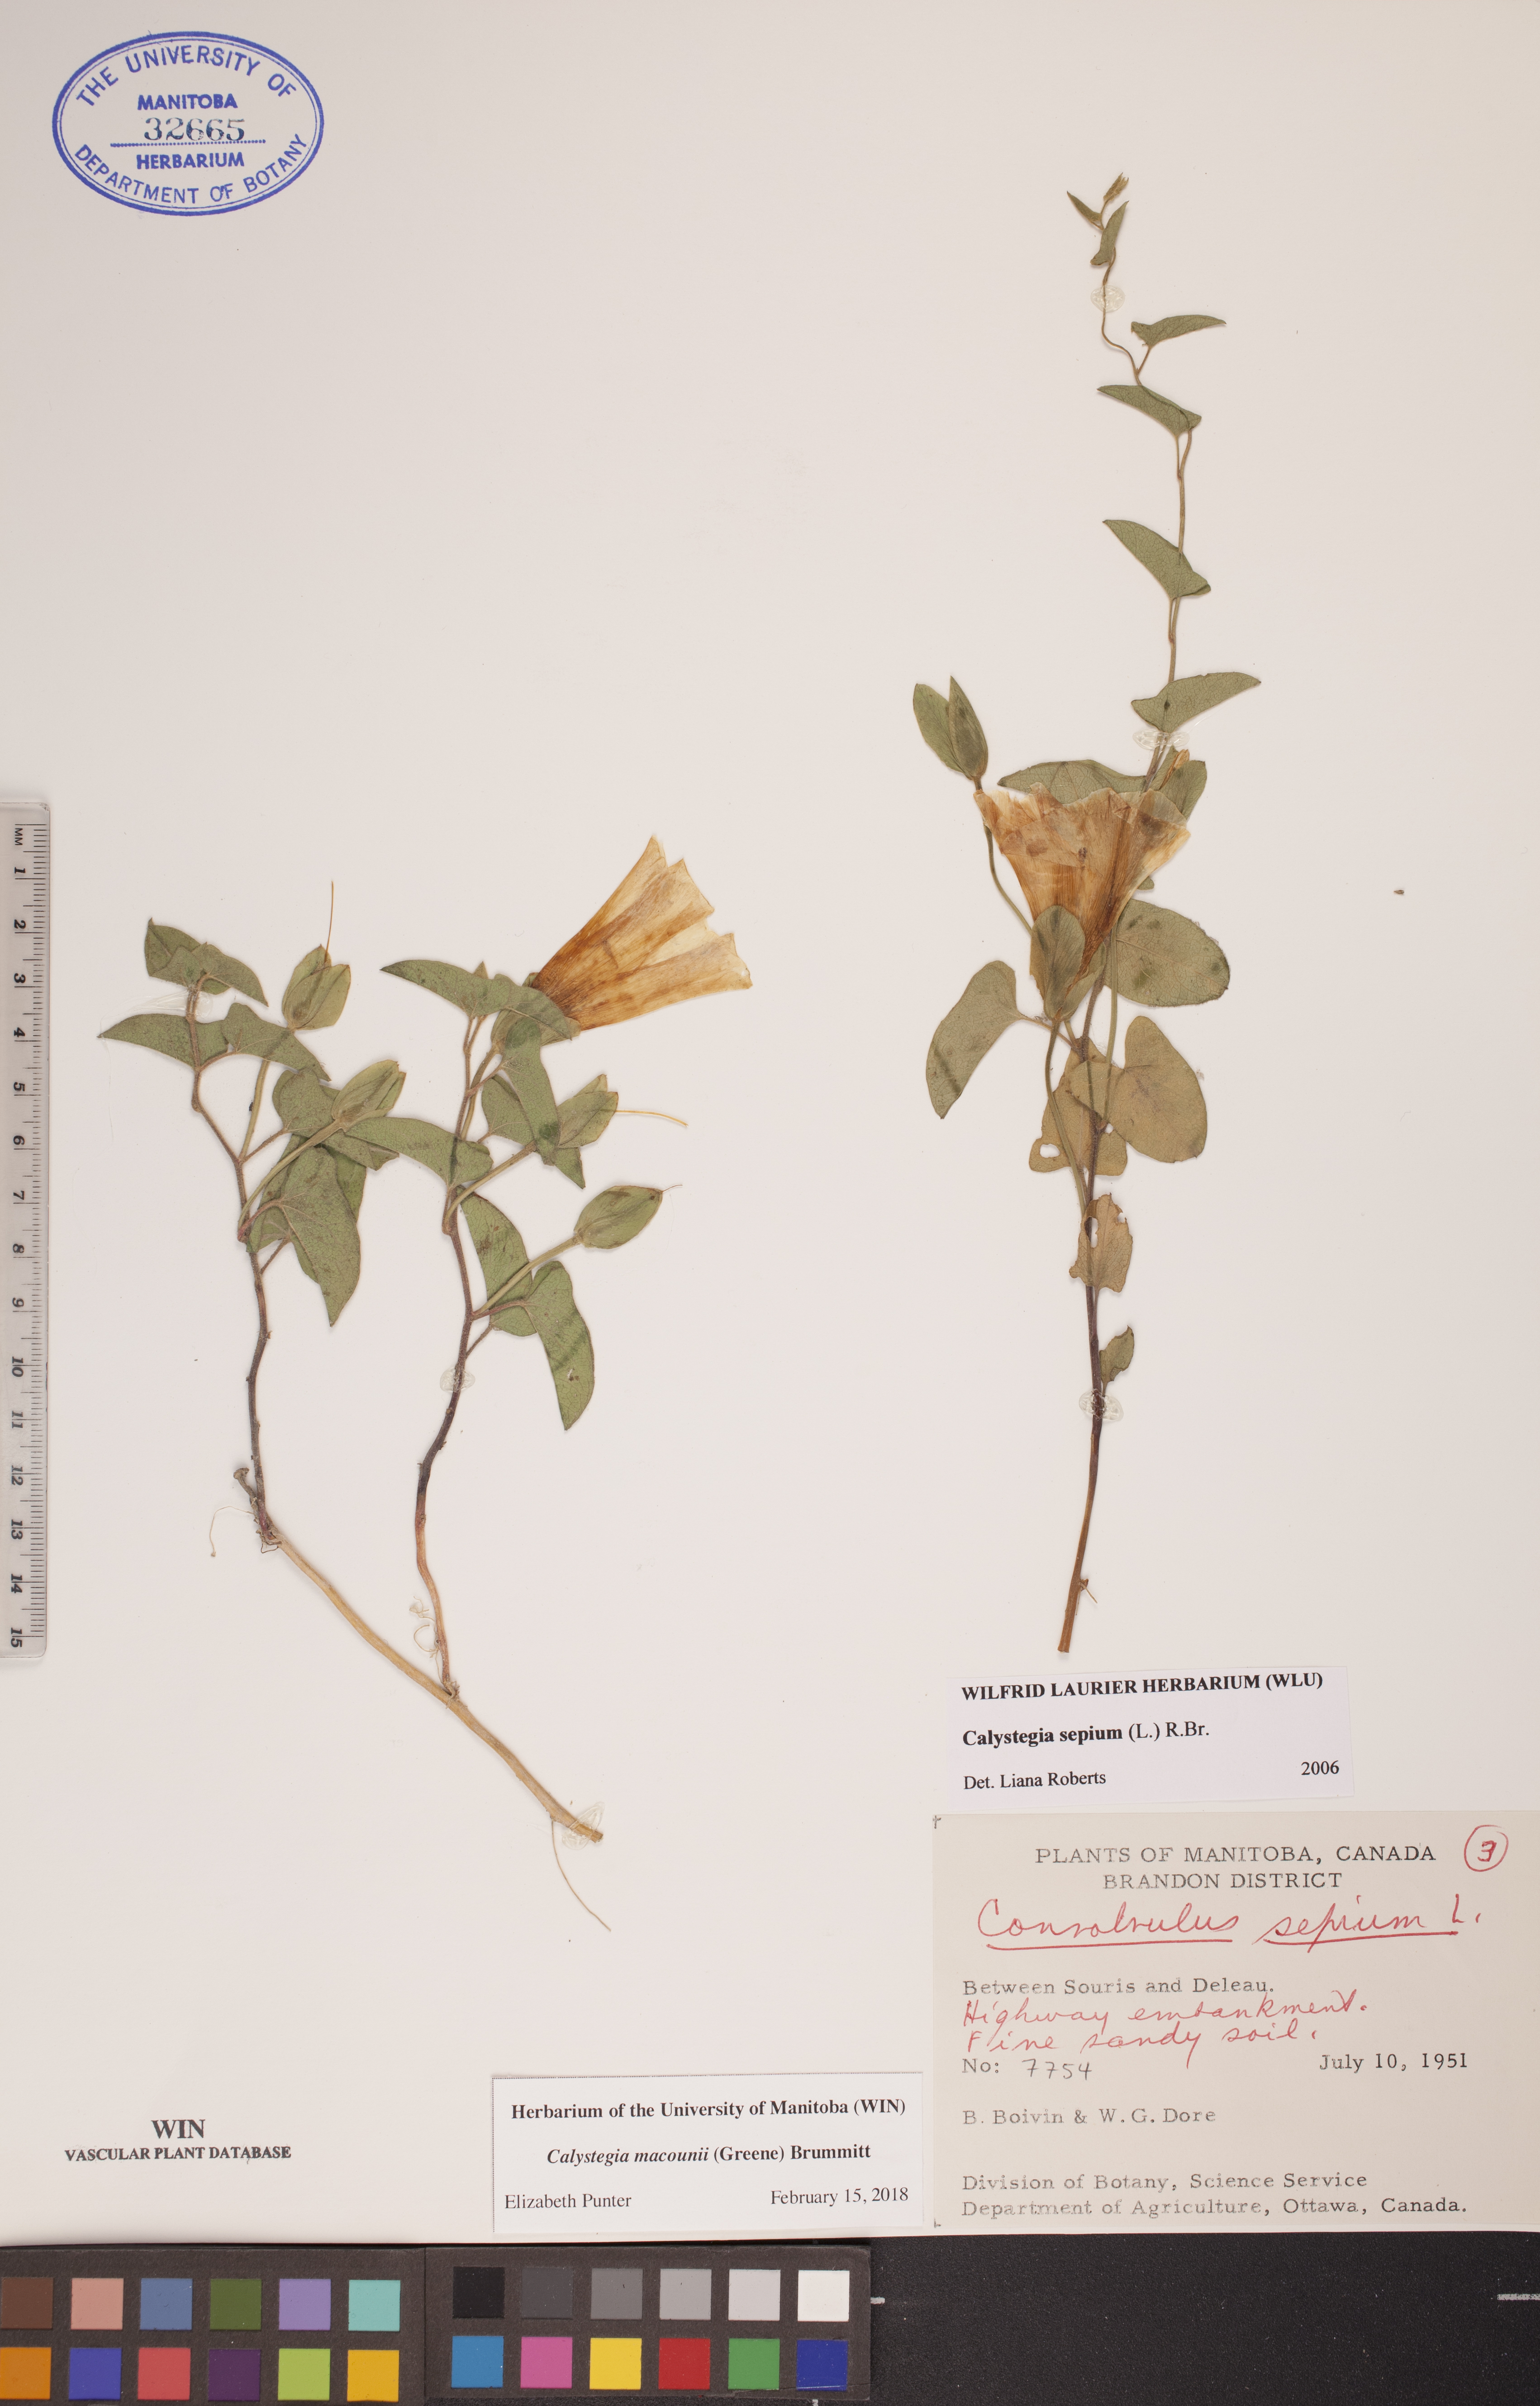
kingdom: Plantae
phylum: Tracheophyta
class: Magnoliopsida
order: Solanales
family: Convolvulaceae
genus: Calystegia
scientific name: Calystegia macounii
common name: Macoun's bindweed
